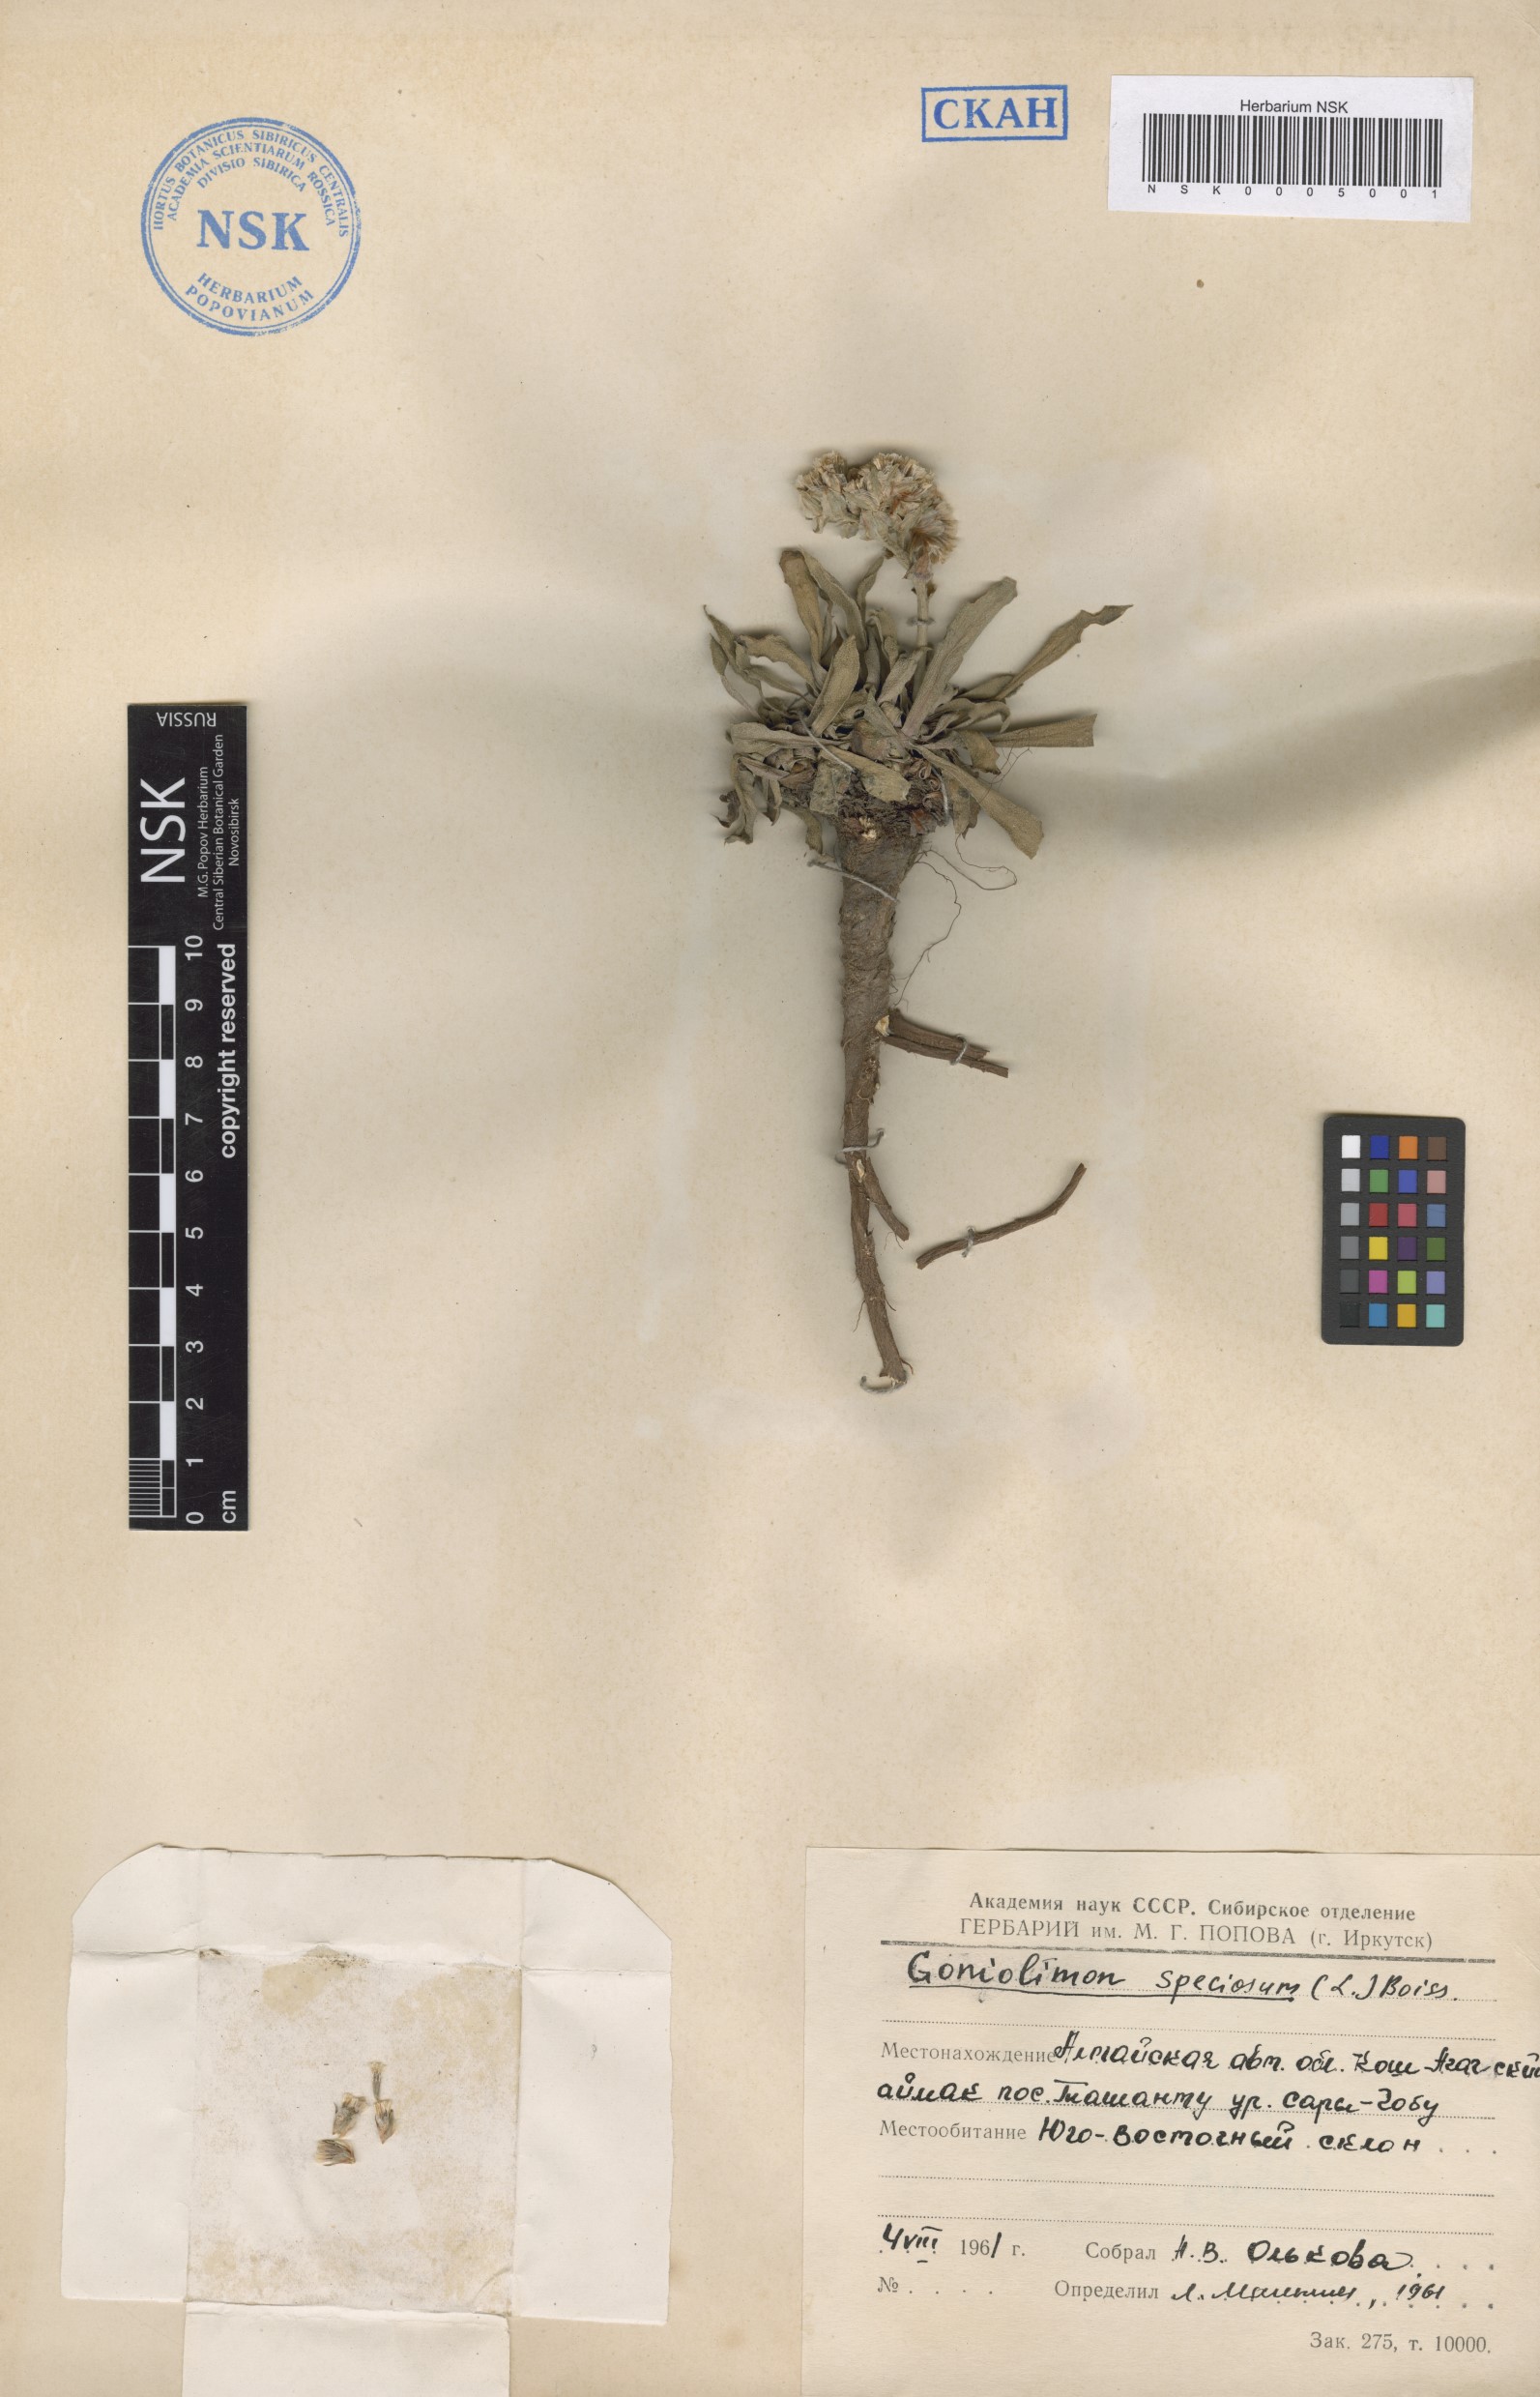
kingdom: Plantae
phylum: Tracheophyta
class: Magnoliopsida
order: Caryophyllales
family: Plumbaginaceae
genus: Goniolimon
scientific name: Goniolimon speciosum
